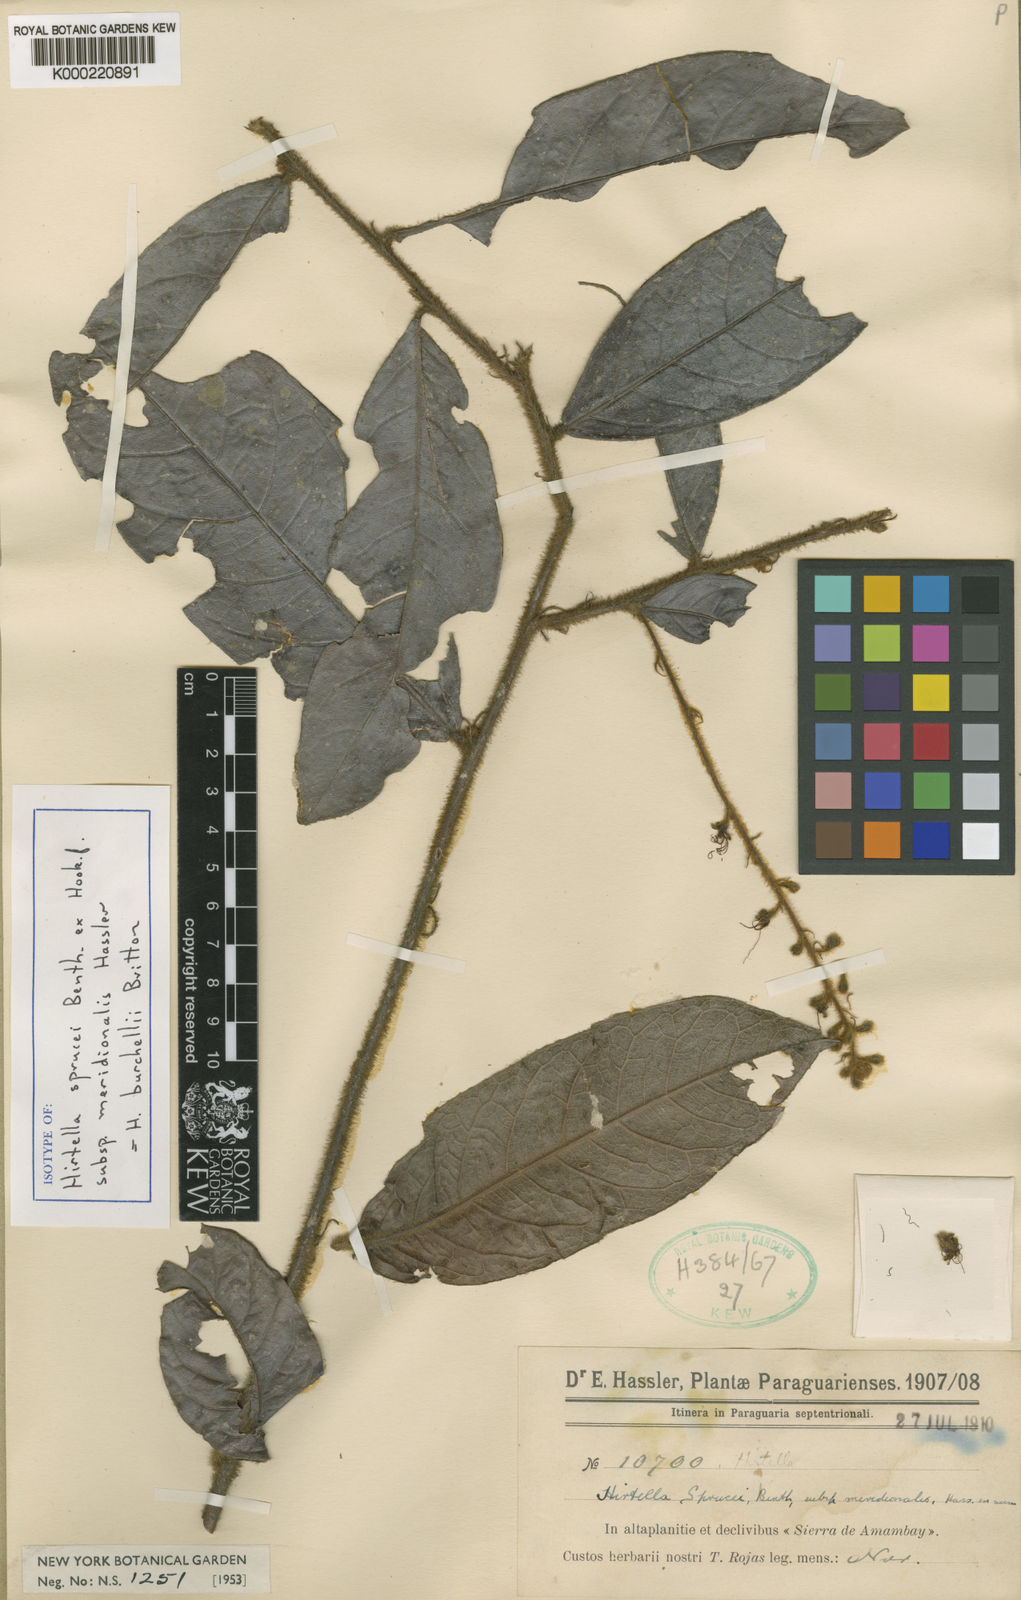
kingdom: Plantae
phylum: Tracheophyta
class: Magnoliopsida
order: Malpighiales
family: Chrysobalanaceae
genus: Hirtella
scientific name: Hirtella burchellii
